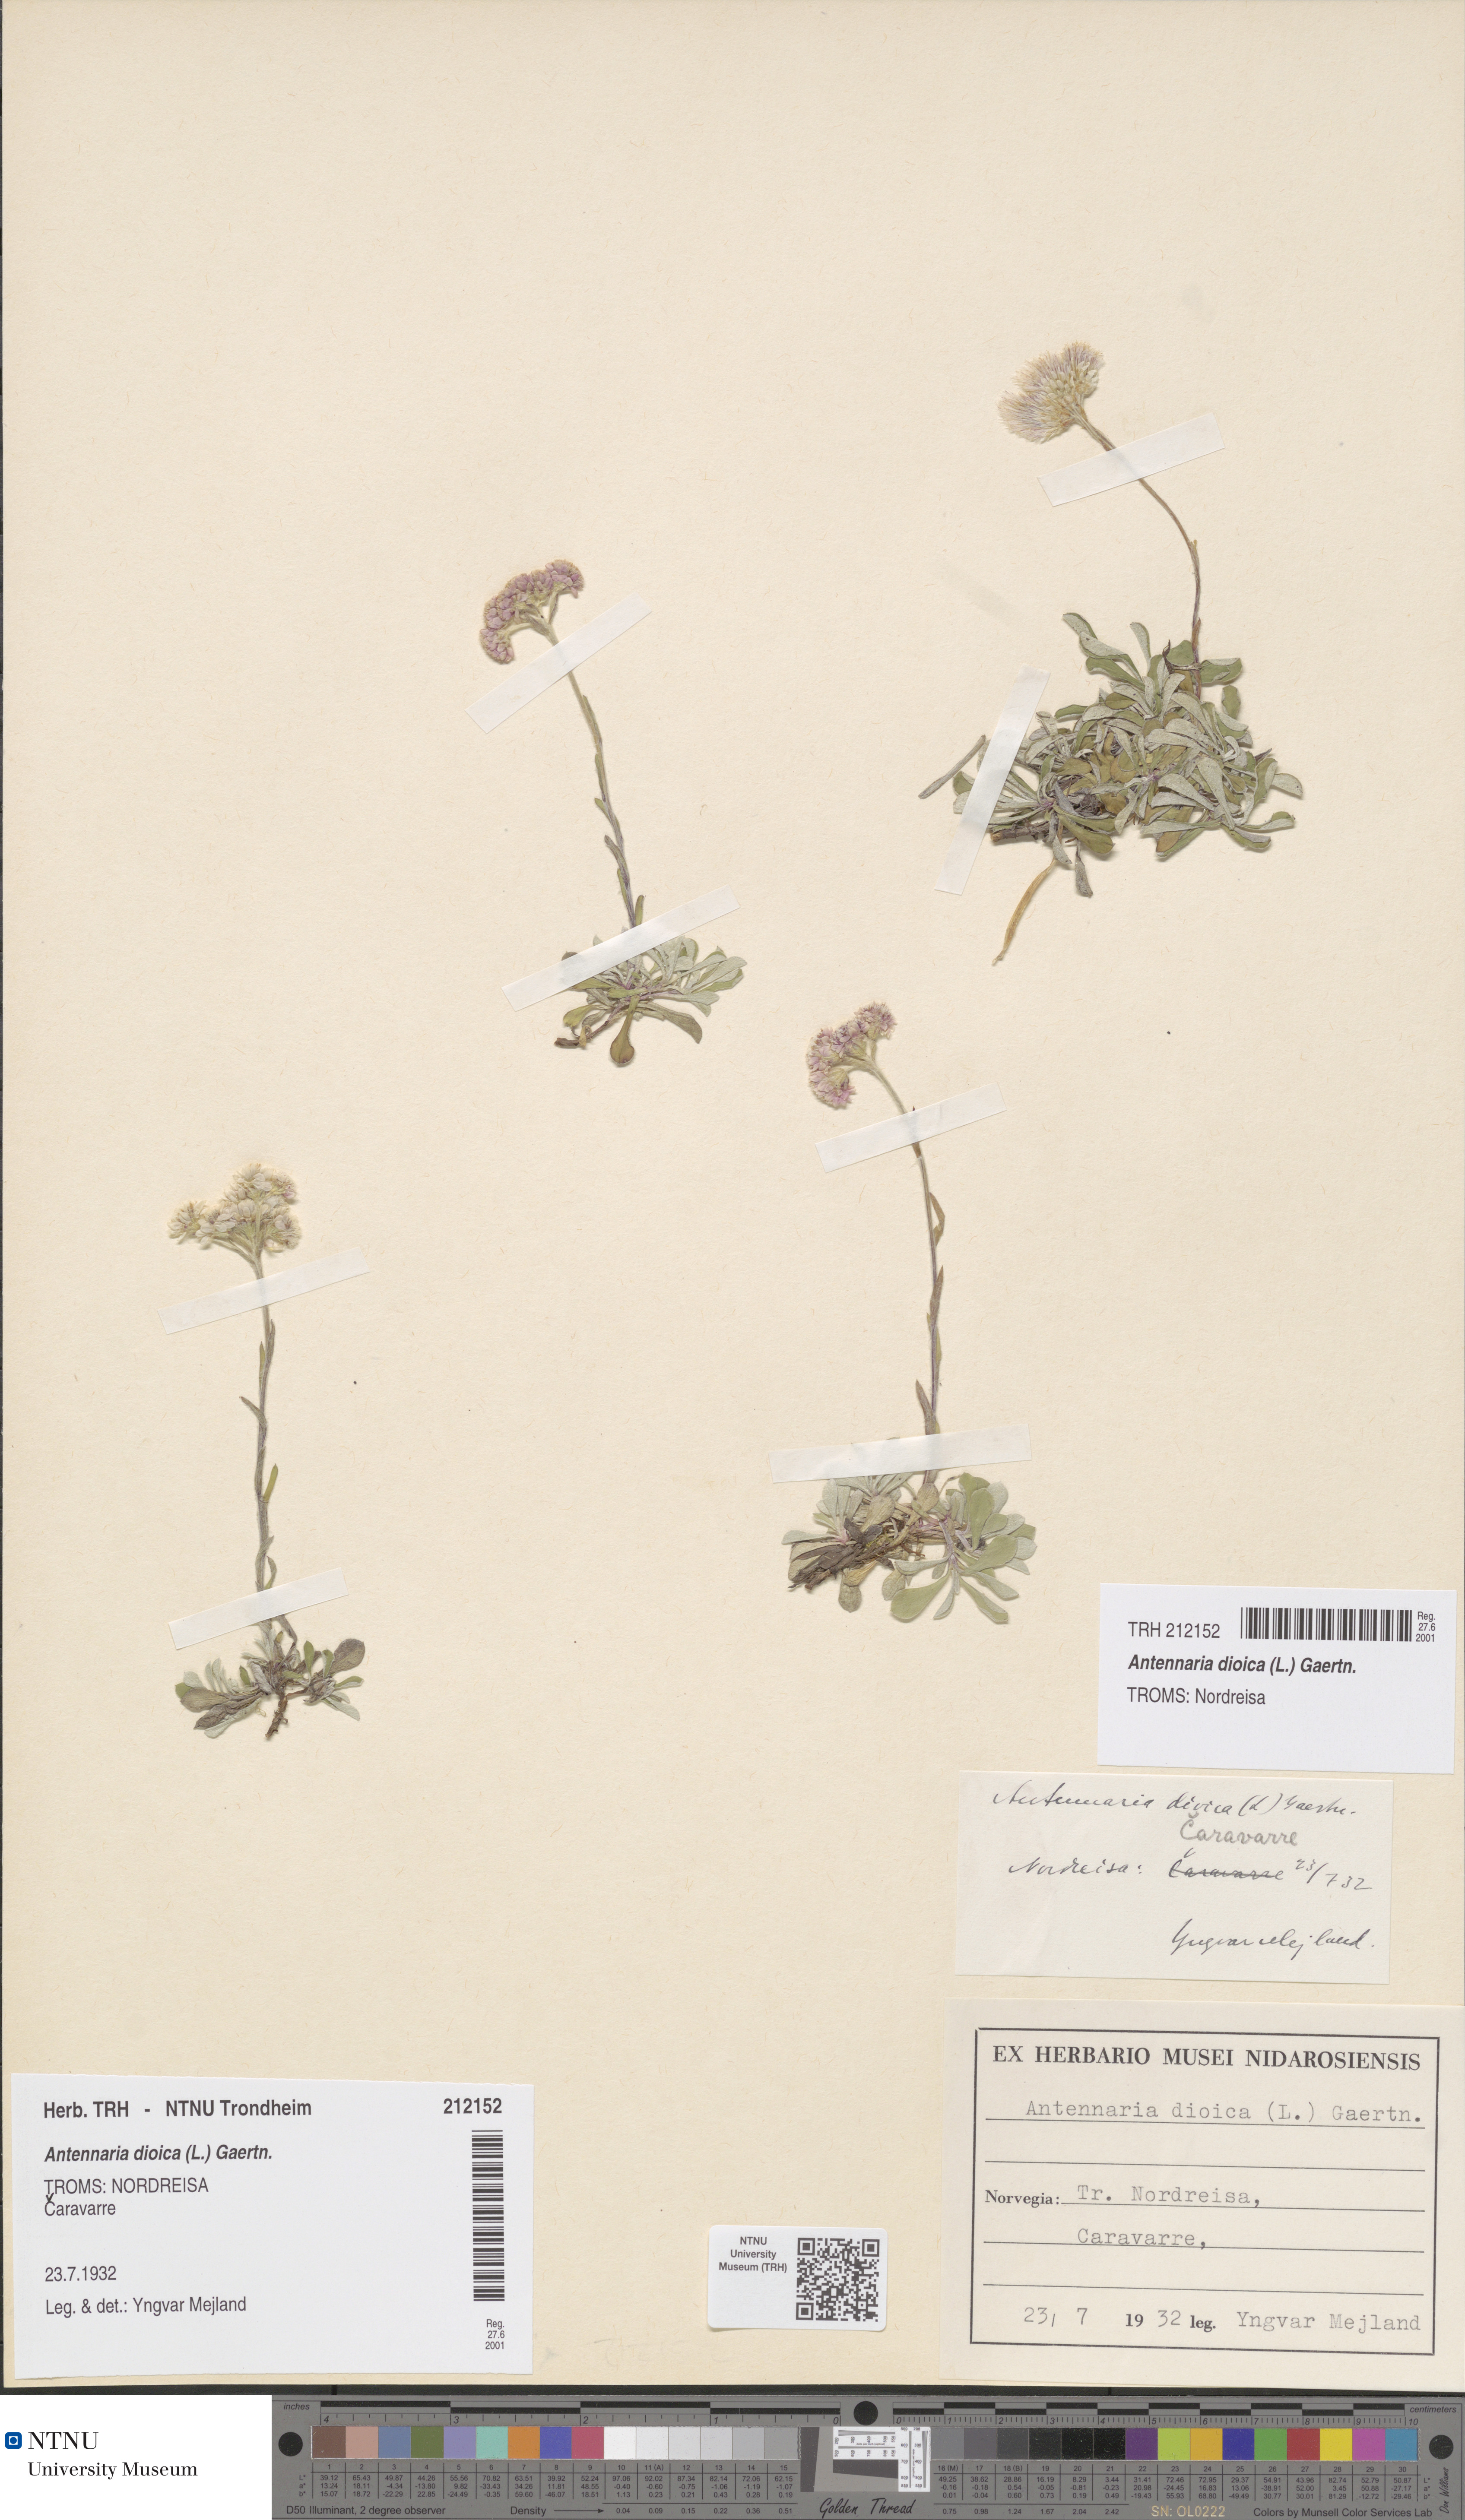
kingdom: Plantae
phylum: Tracheophyta
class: Magnoliopsida
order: Asterales
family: Asteraceae
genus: Antennaria
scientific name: Antennaria dioica
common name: Mountain everlasting
